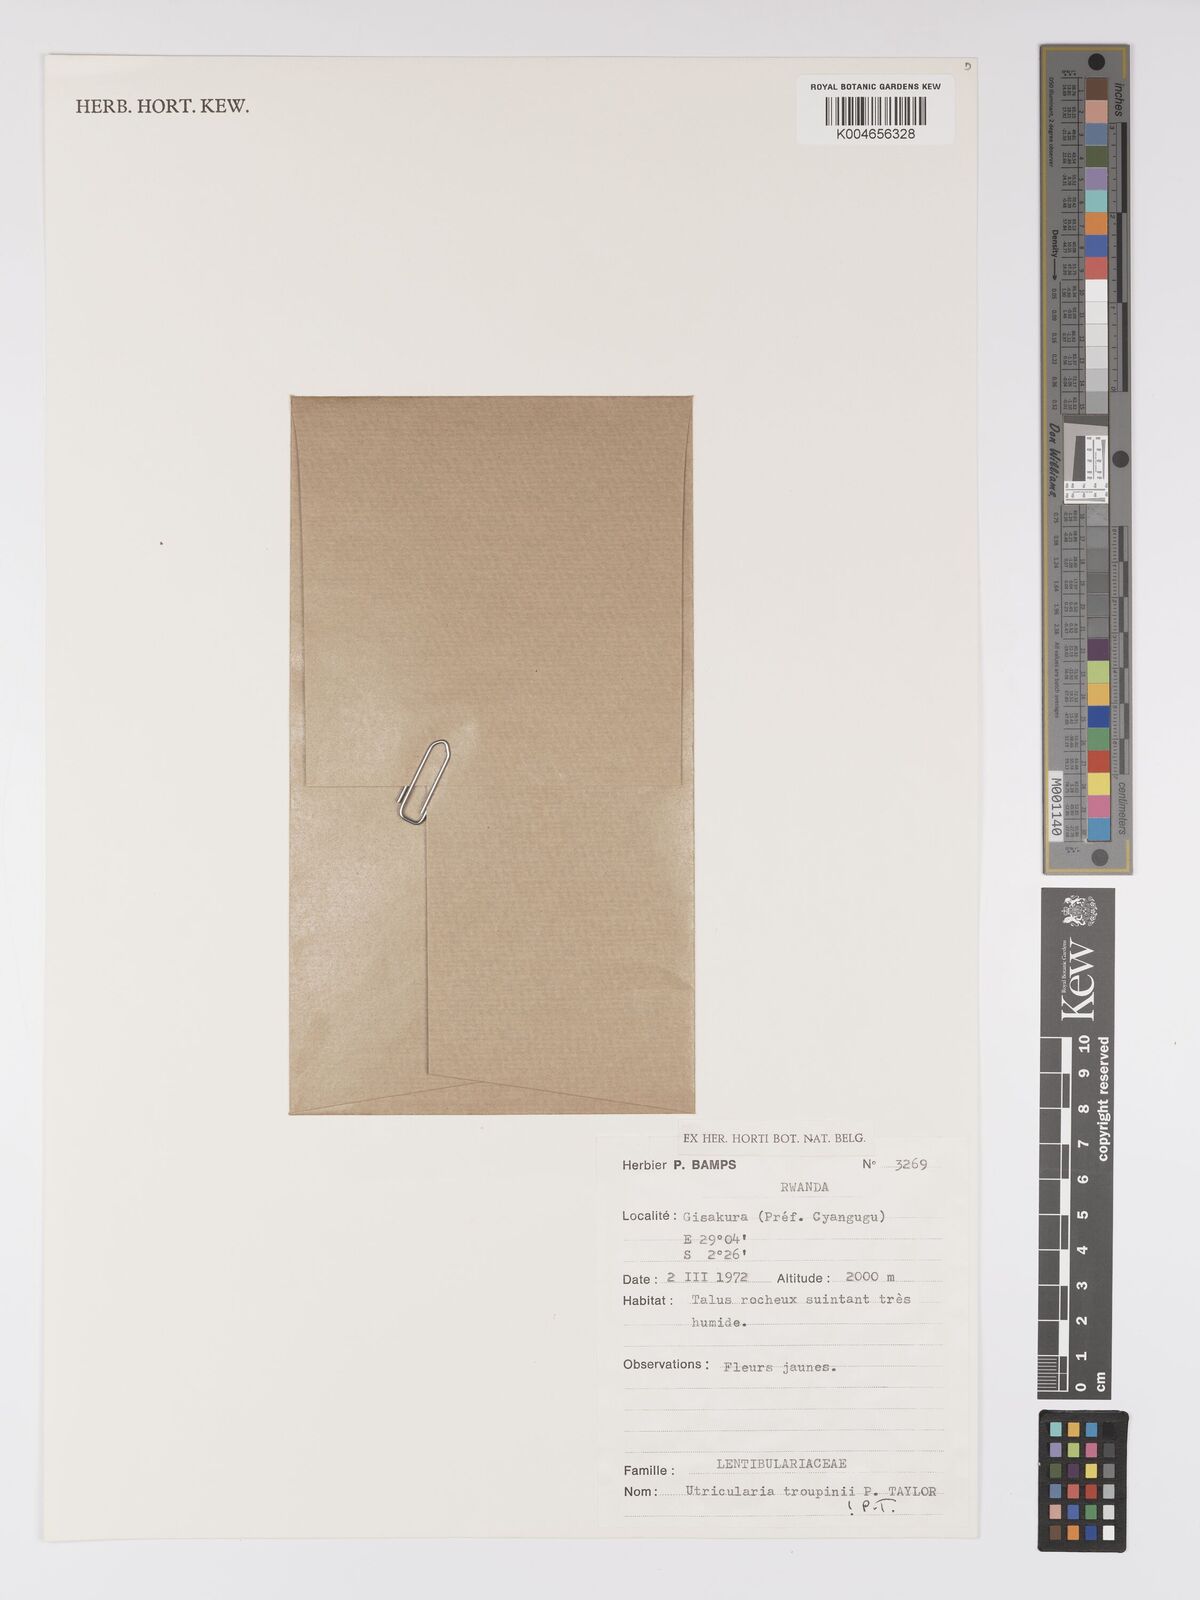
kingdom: Plantae
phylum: Tracheophyta
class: Magnoliopsida
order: Lamiales
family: Lentibulariaceae
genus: Utricularia
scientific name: Utricularia troupinii
